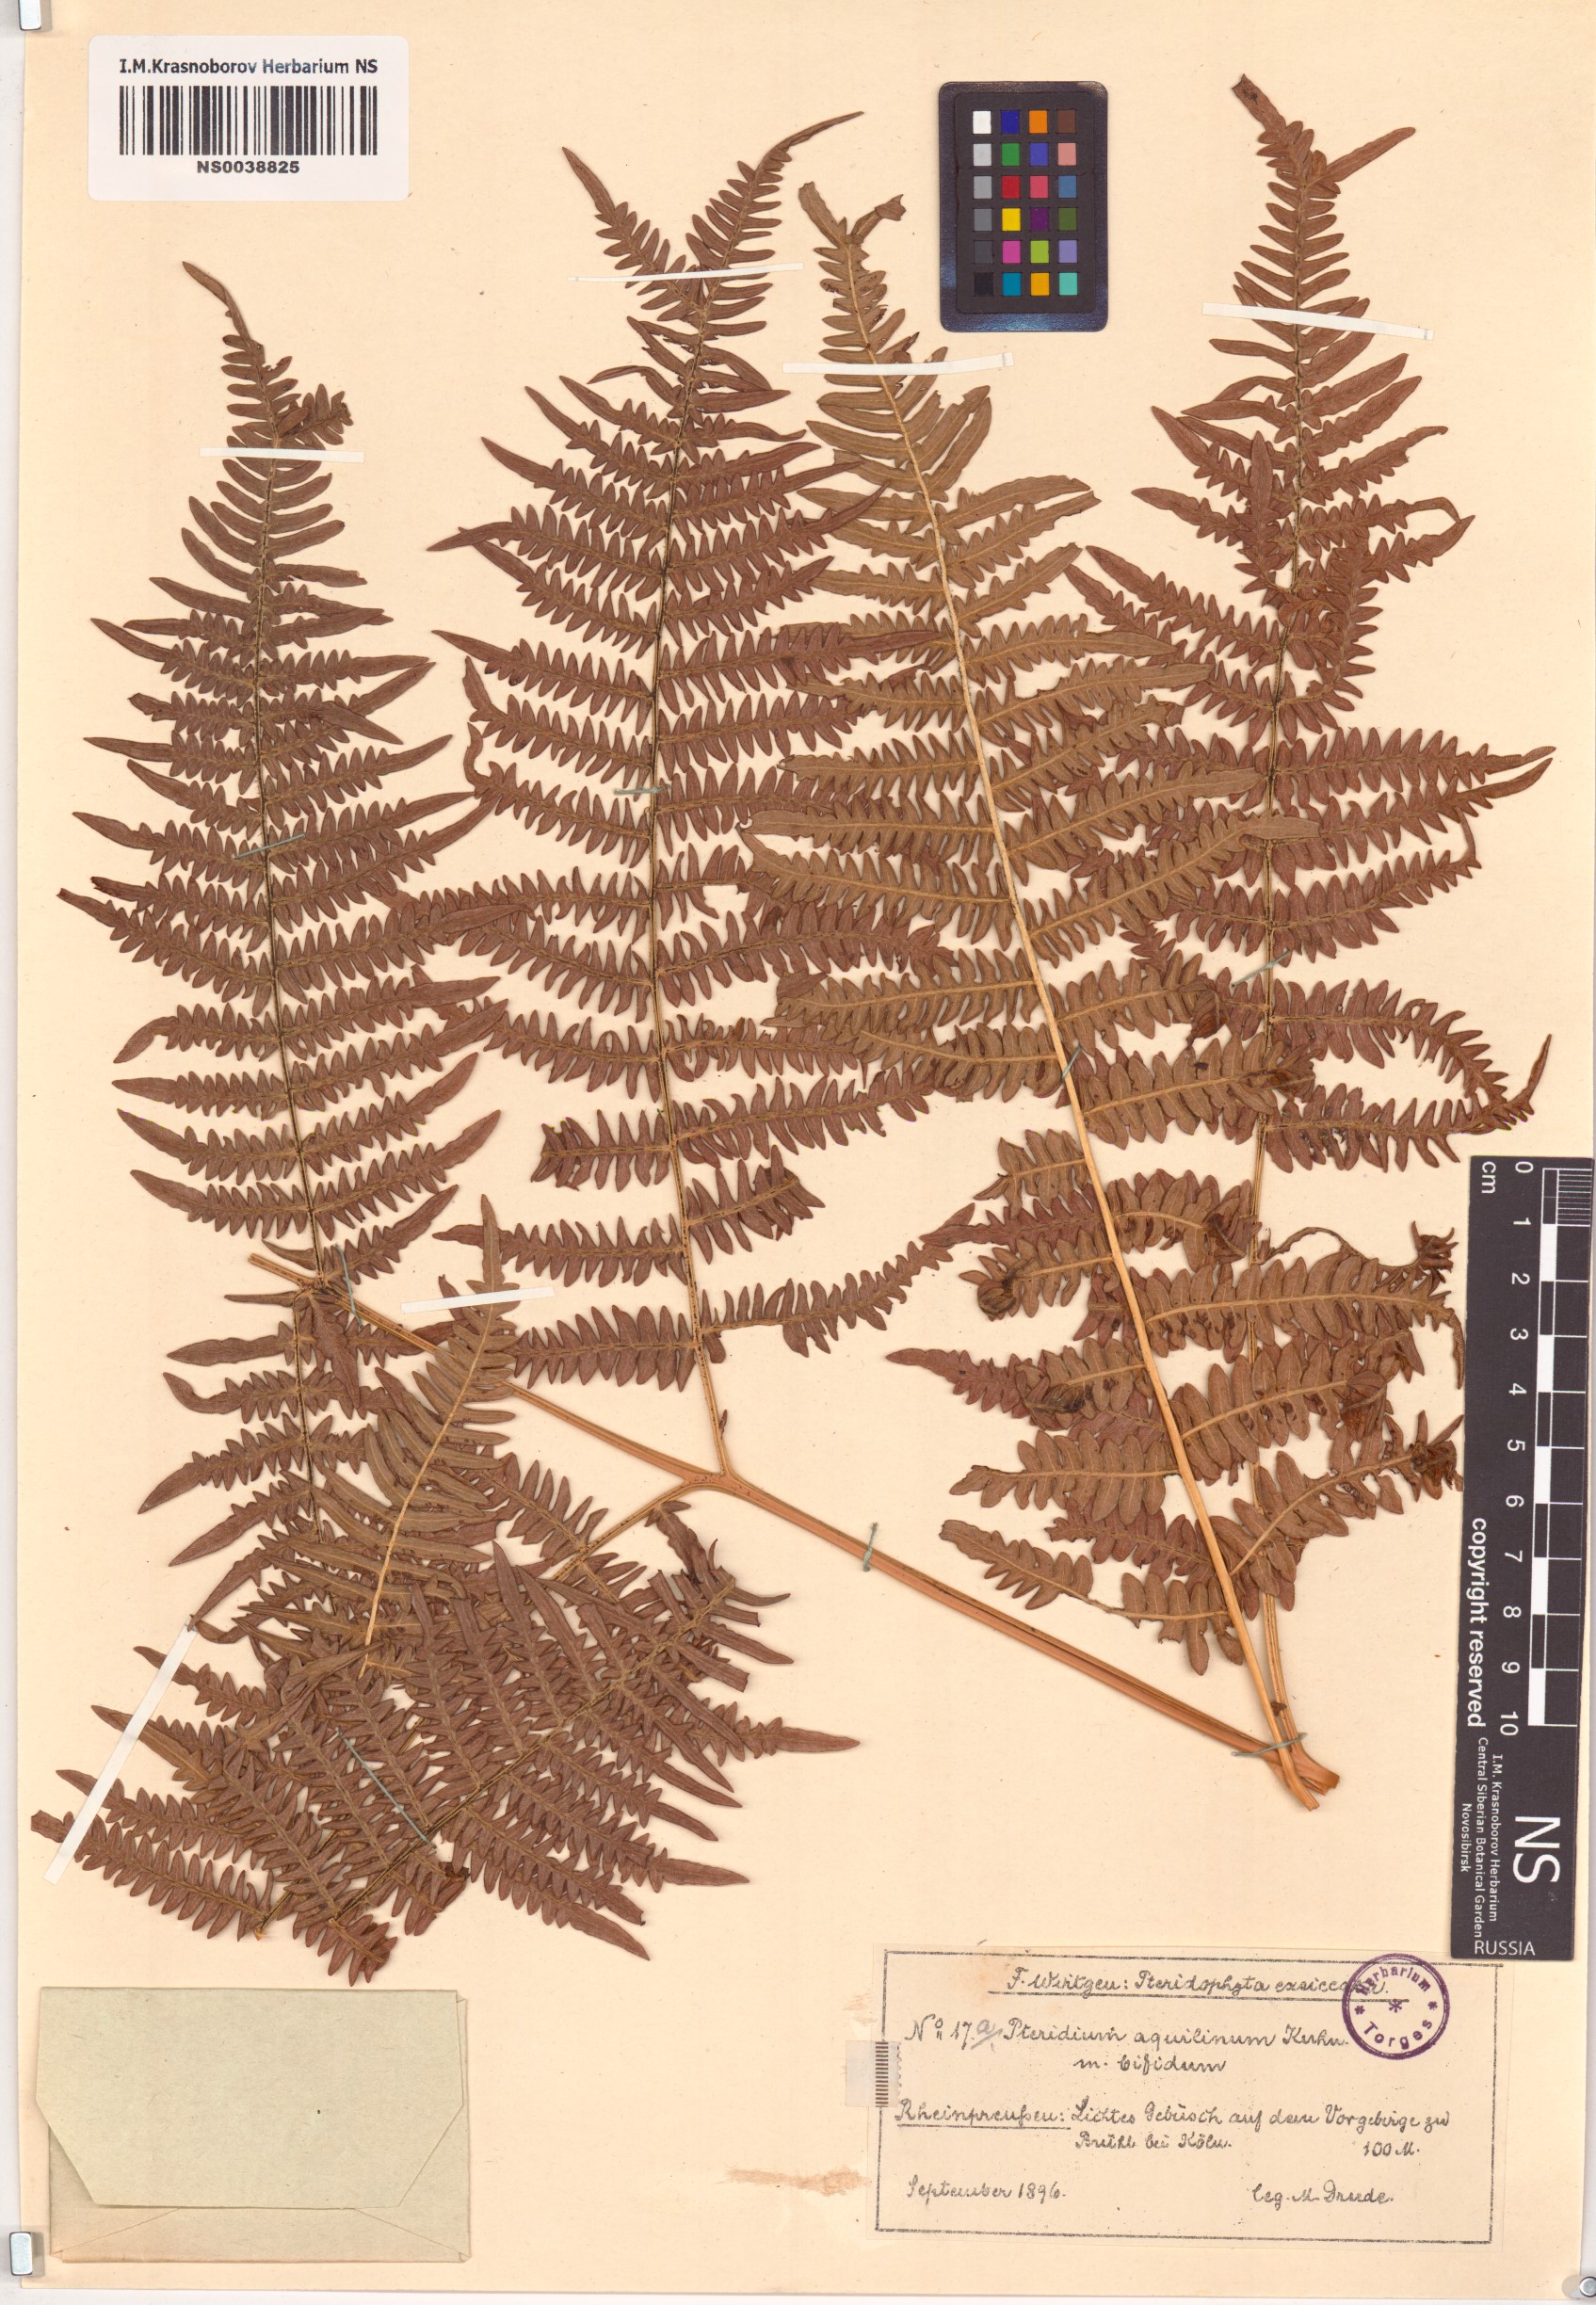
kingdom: Plantae
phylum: Tracheophyta
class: Polypodiopsida
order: Polypodiales
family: Dennstaedtiaceae
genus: Pteridium
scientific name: Pteridium aquilinum
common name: Bracken
